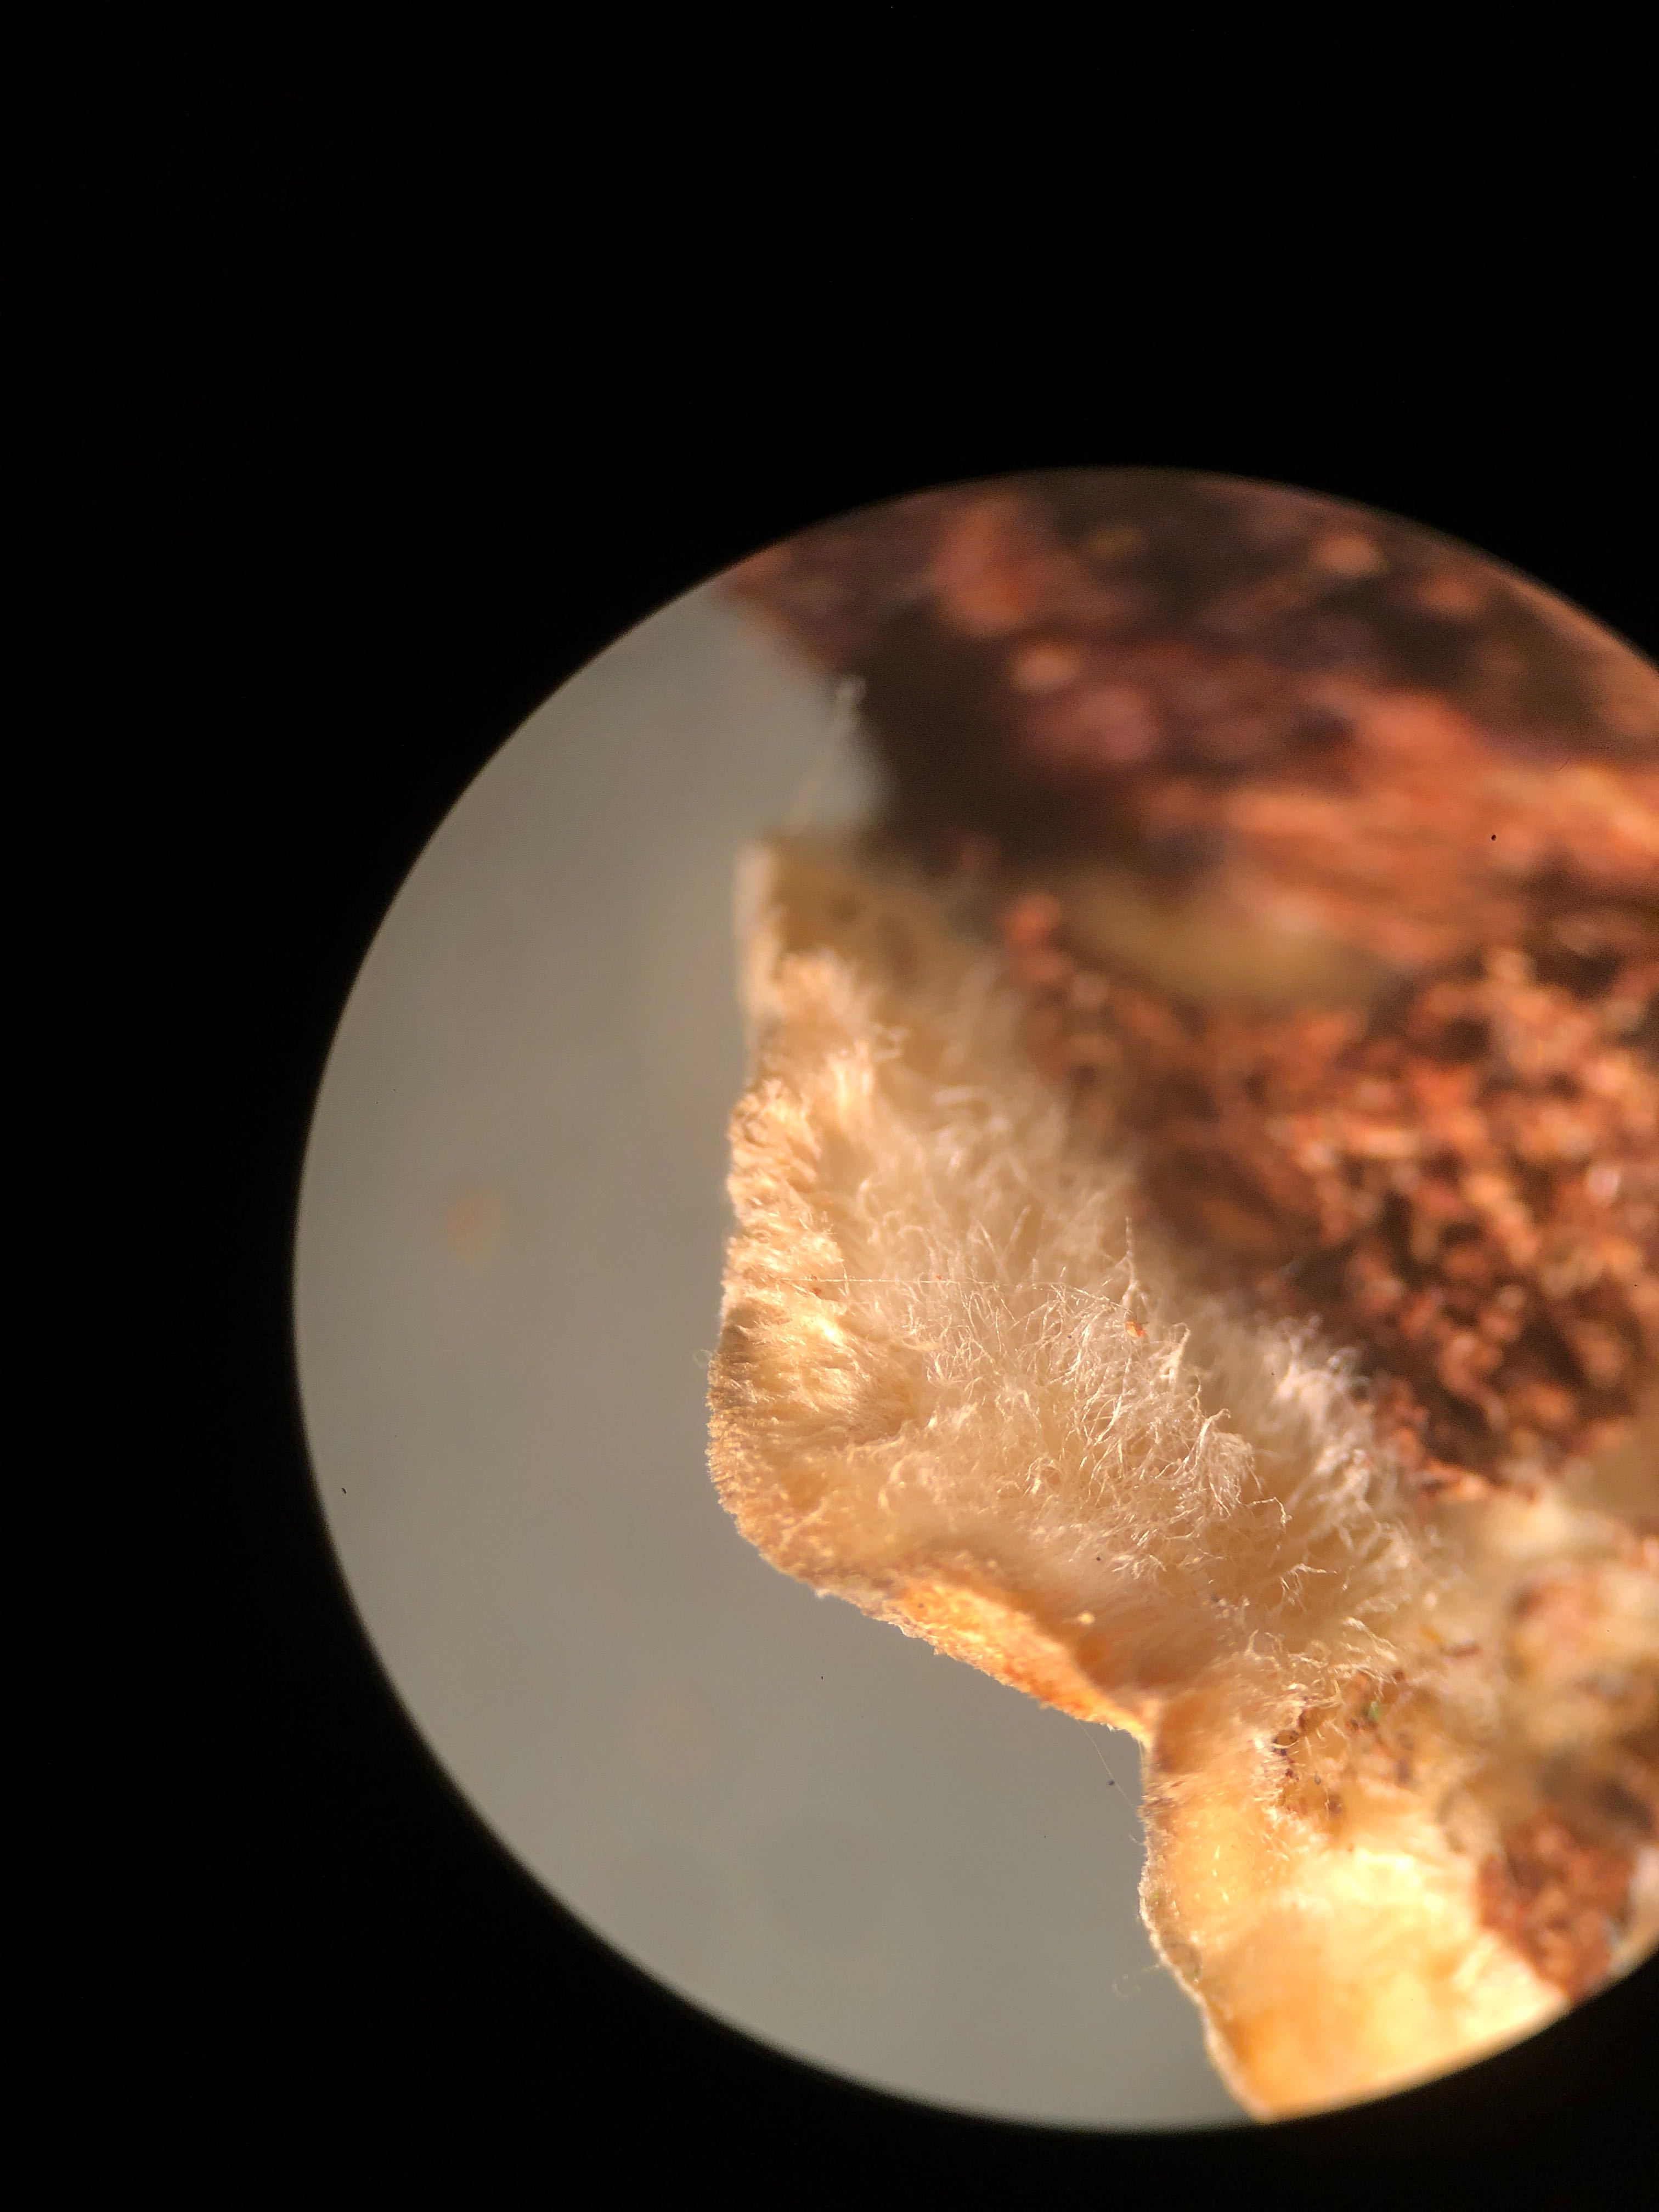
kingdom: Fungi
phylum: Basidiomycota
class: Agaricomycetes
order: Russulales
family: Stereaceae
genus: Stereum
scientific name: Stereum hirsutum
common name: håret lædersvamp
